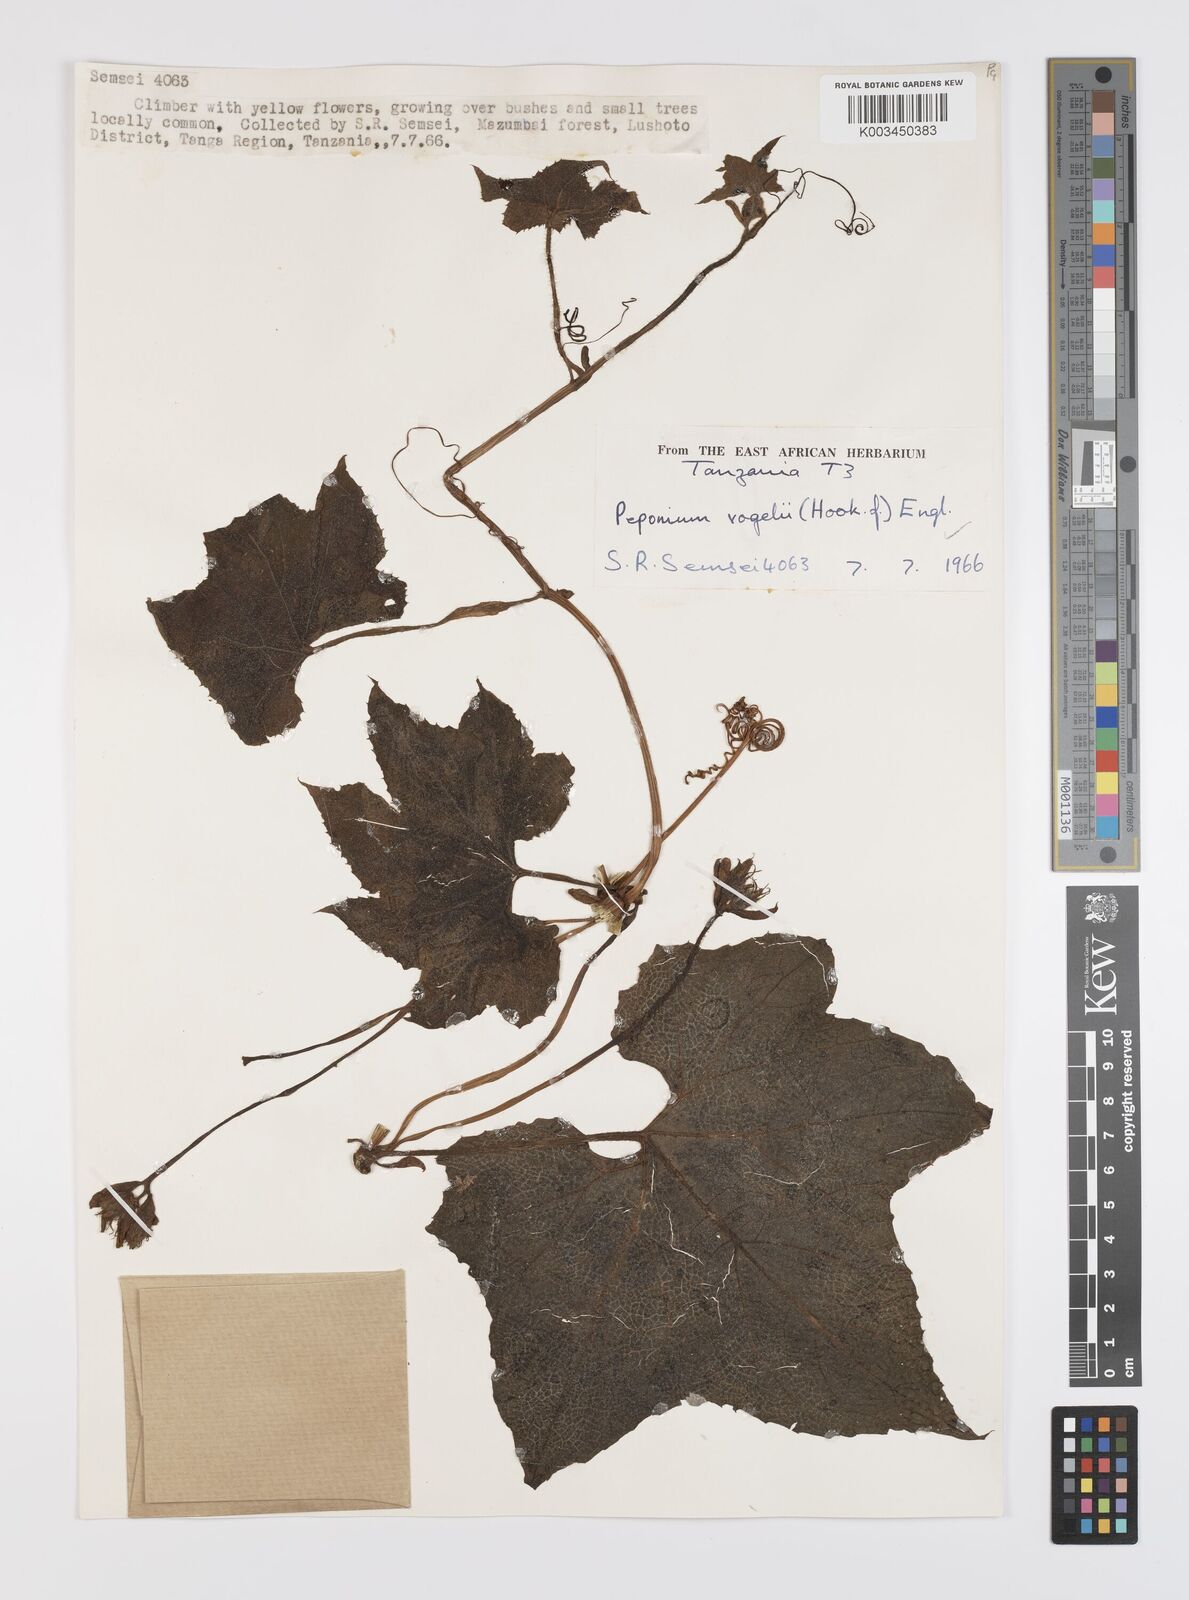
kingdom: Plantae
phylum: Tracheophyta
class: Magnoliopsida
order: Cucurbitales
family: Cucurbitaceae
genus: Peponium
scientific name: Peponium vogelii
